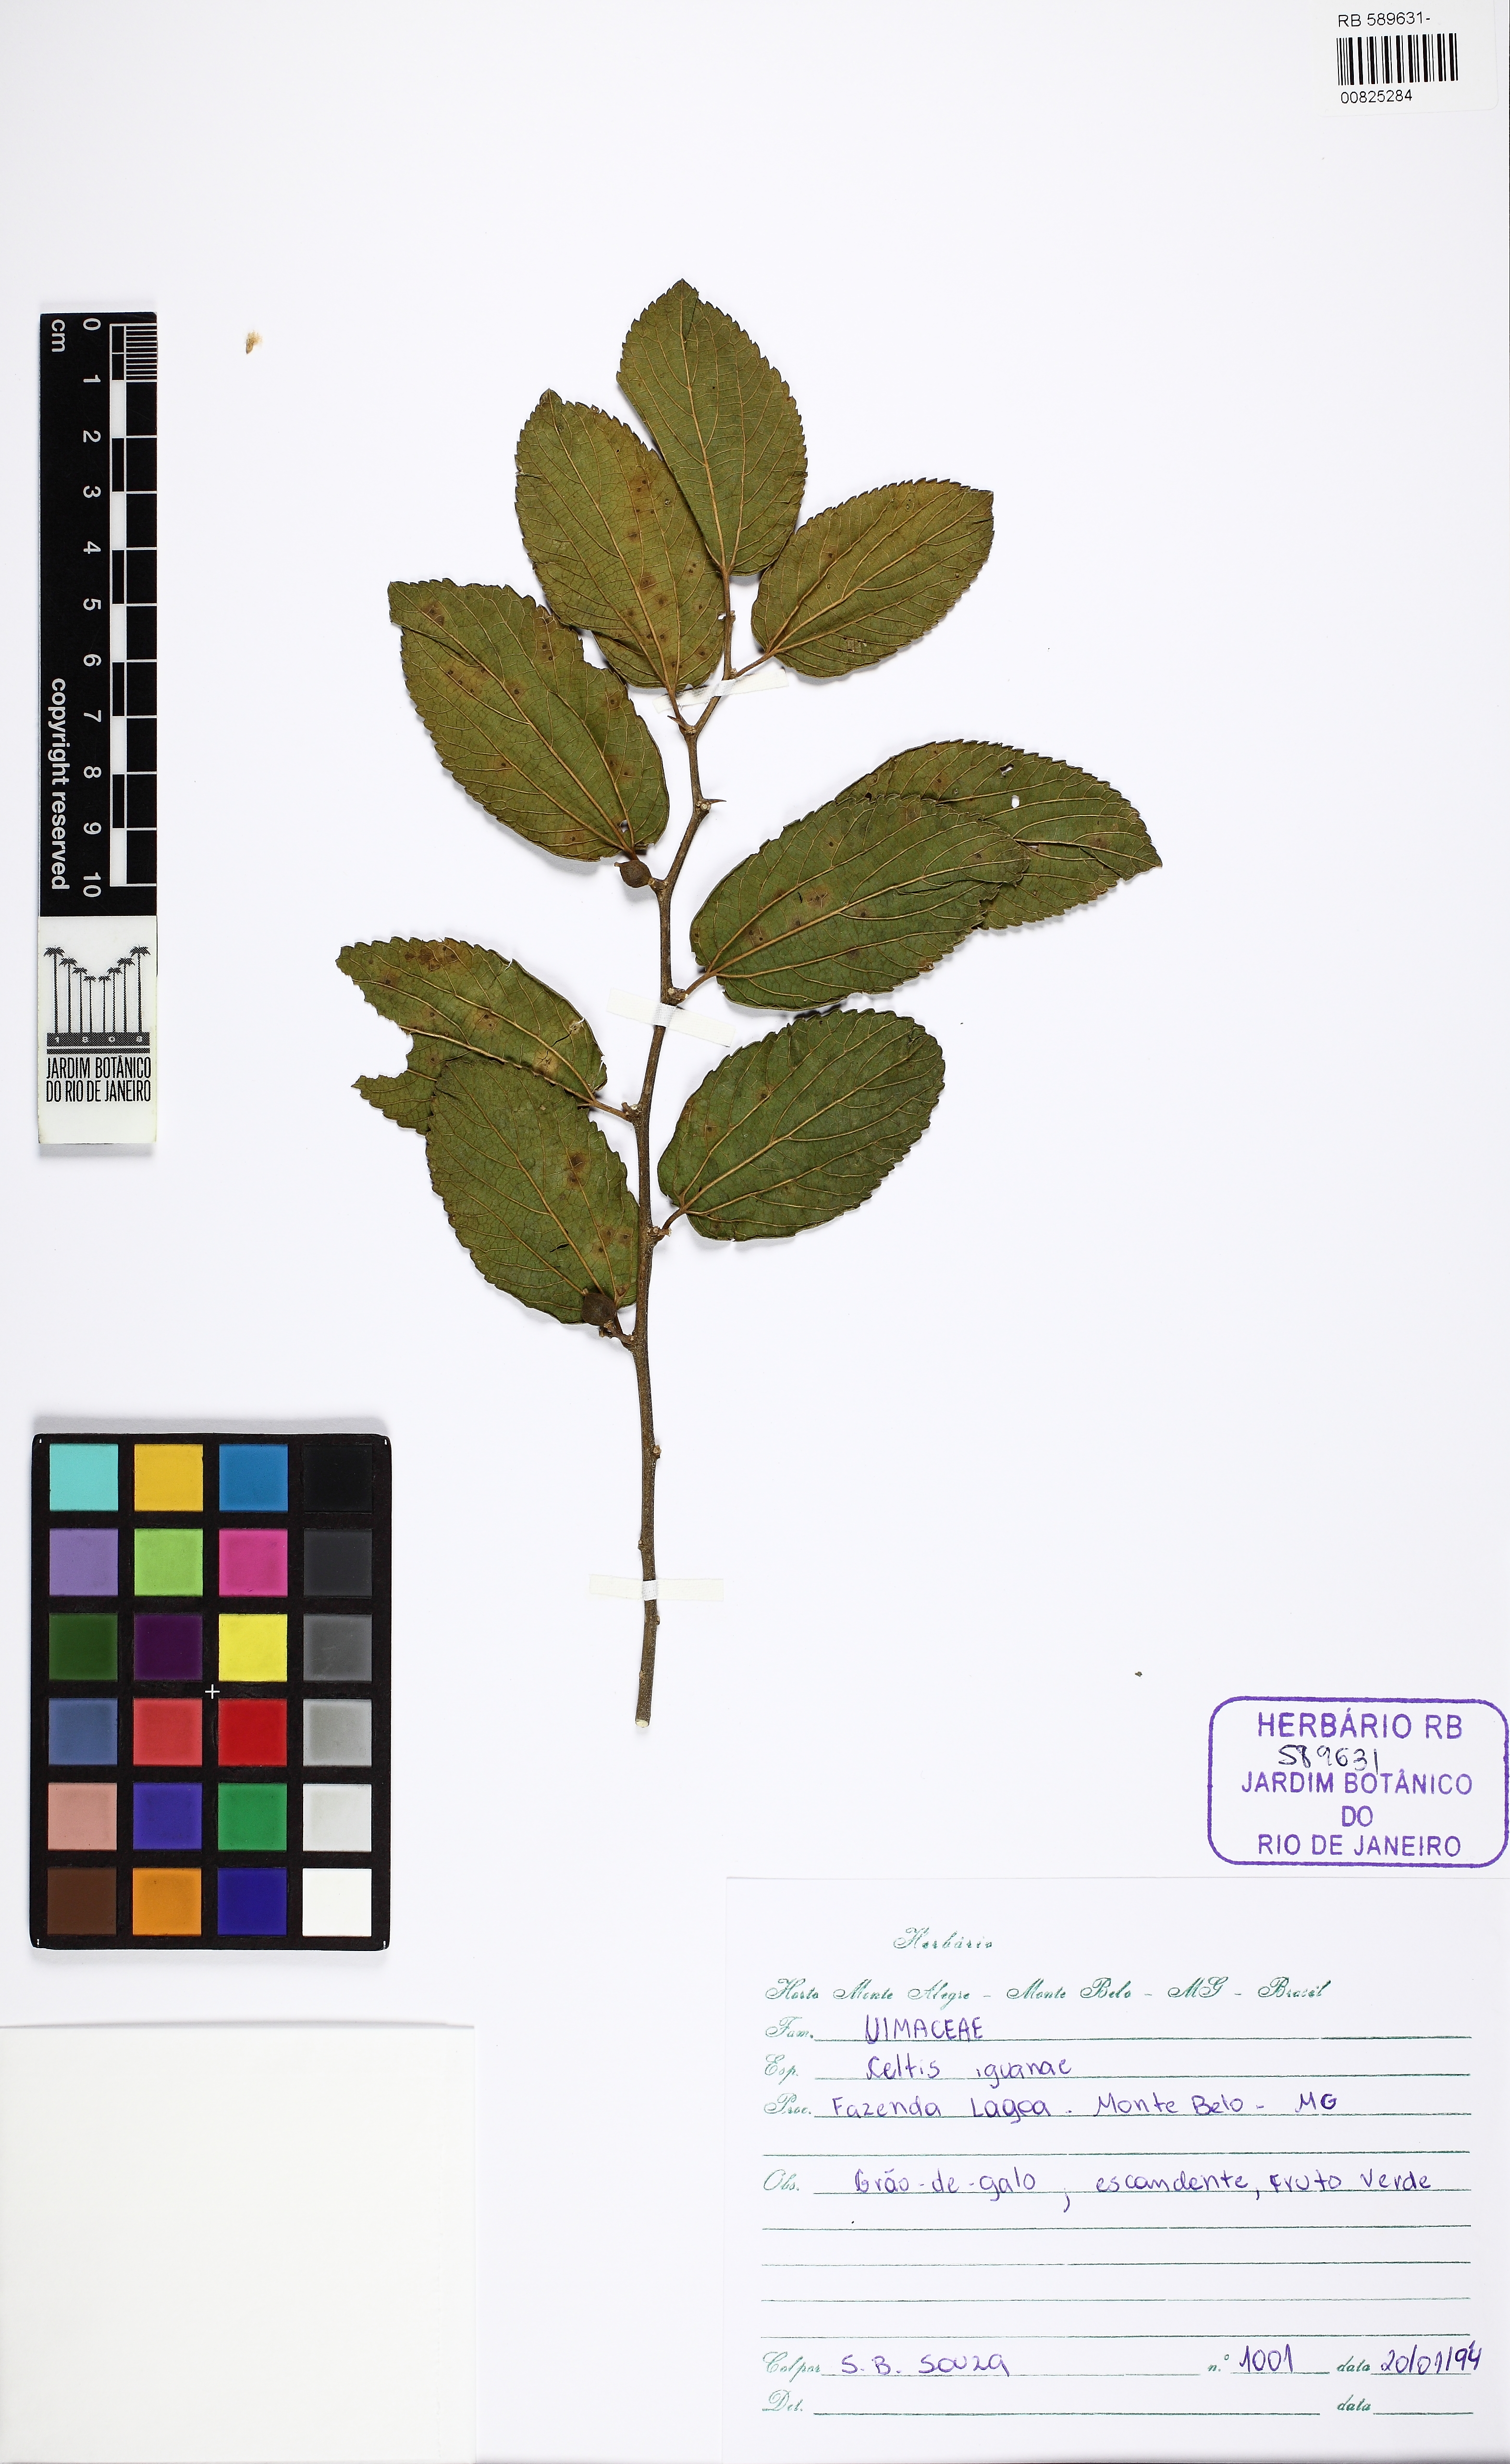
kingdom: Plantae
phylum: Tracheophyta
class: Magnoliopsida
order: Rosales
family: Cannabaceae
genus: Celtis
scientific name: Celtis iguanaea
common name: Iguana hackberry
